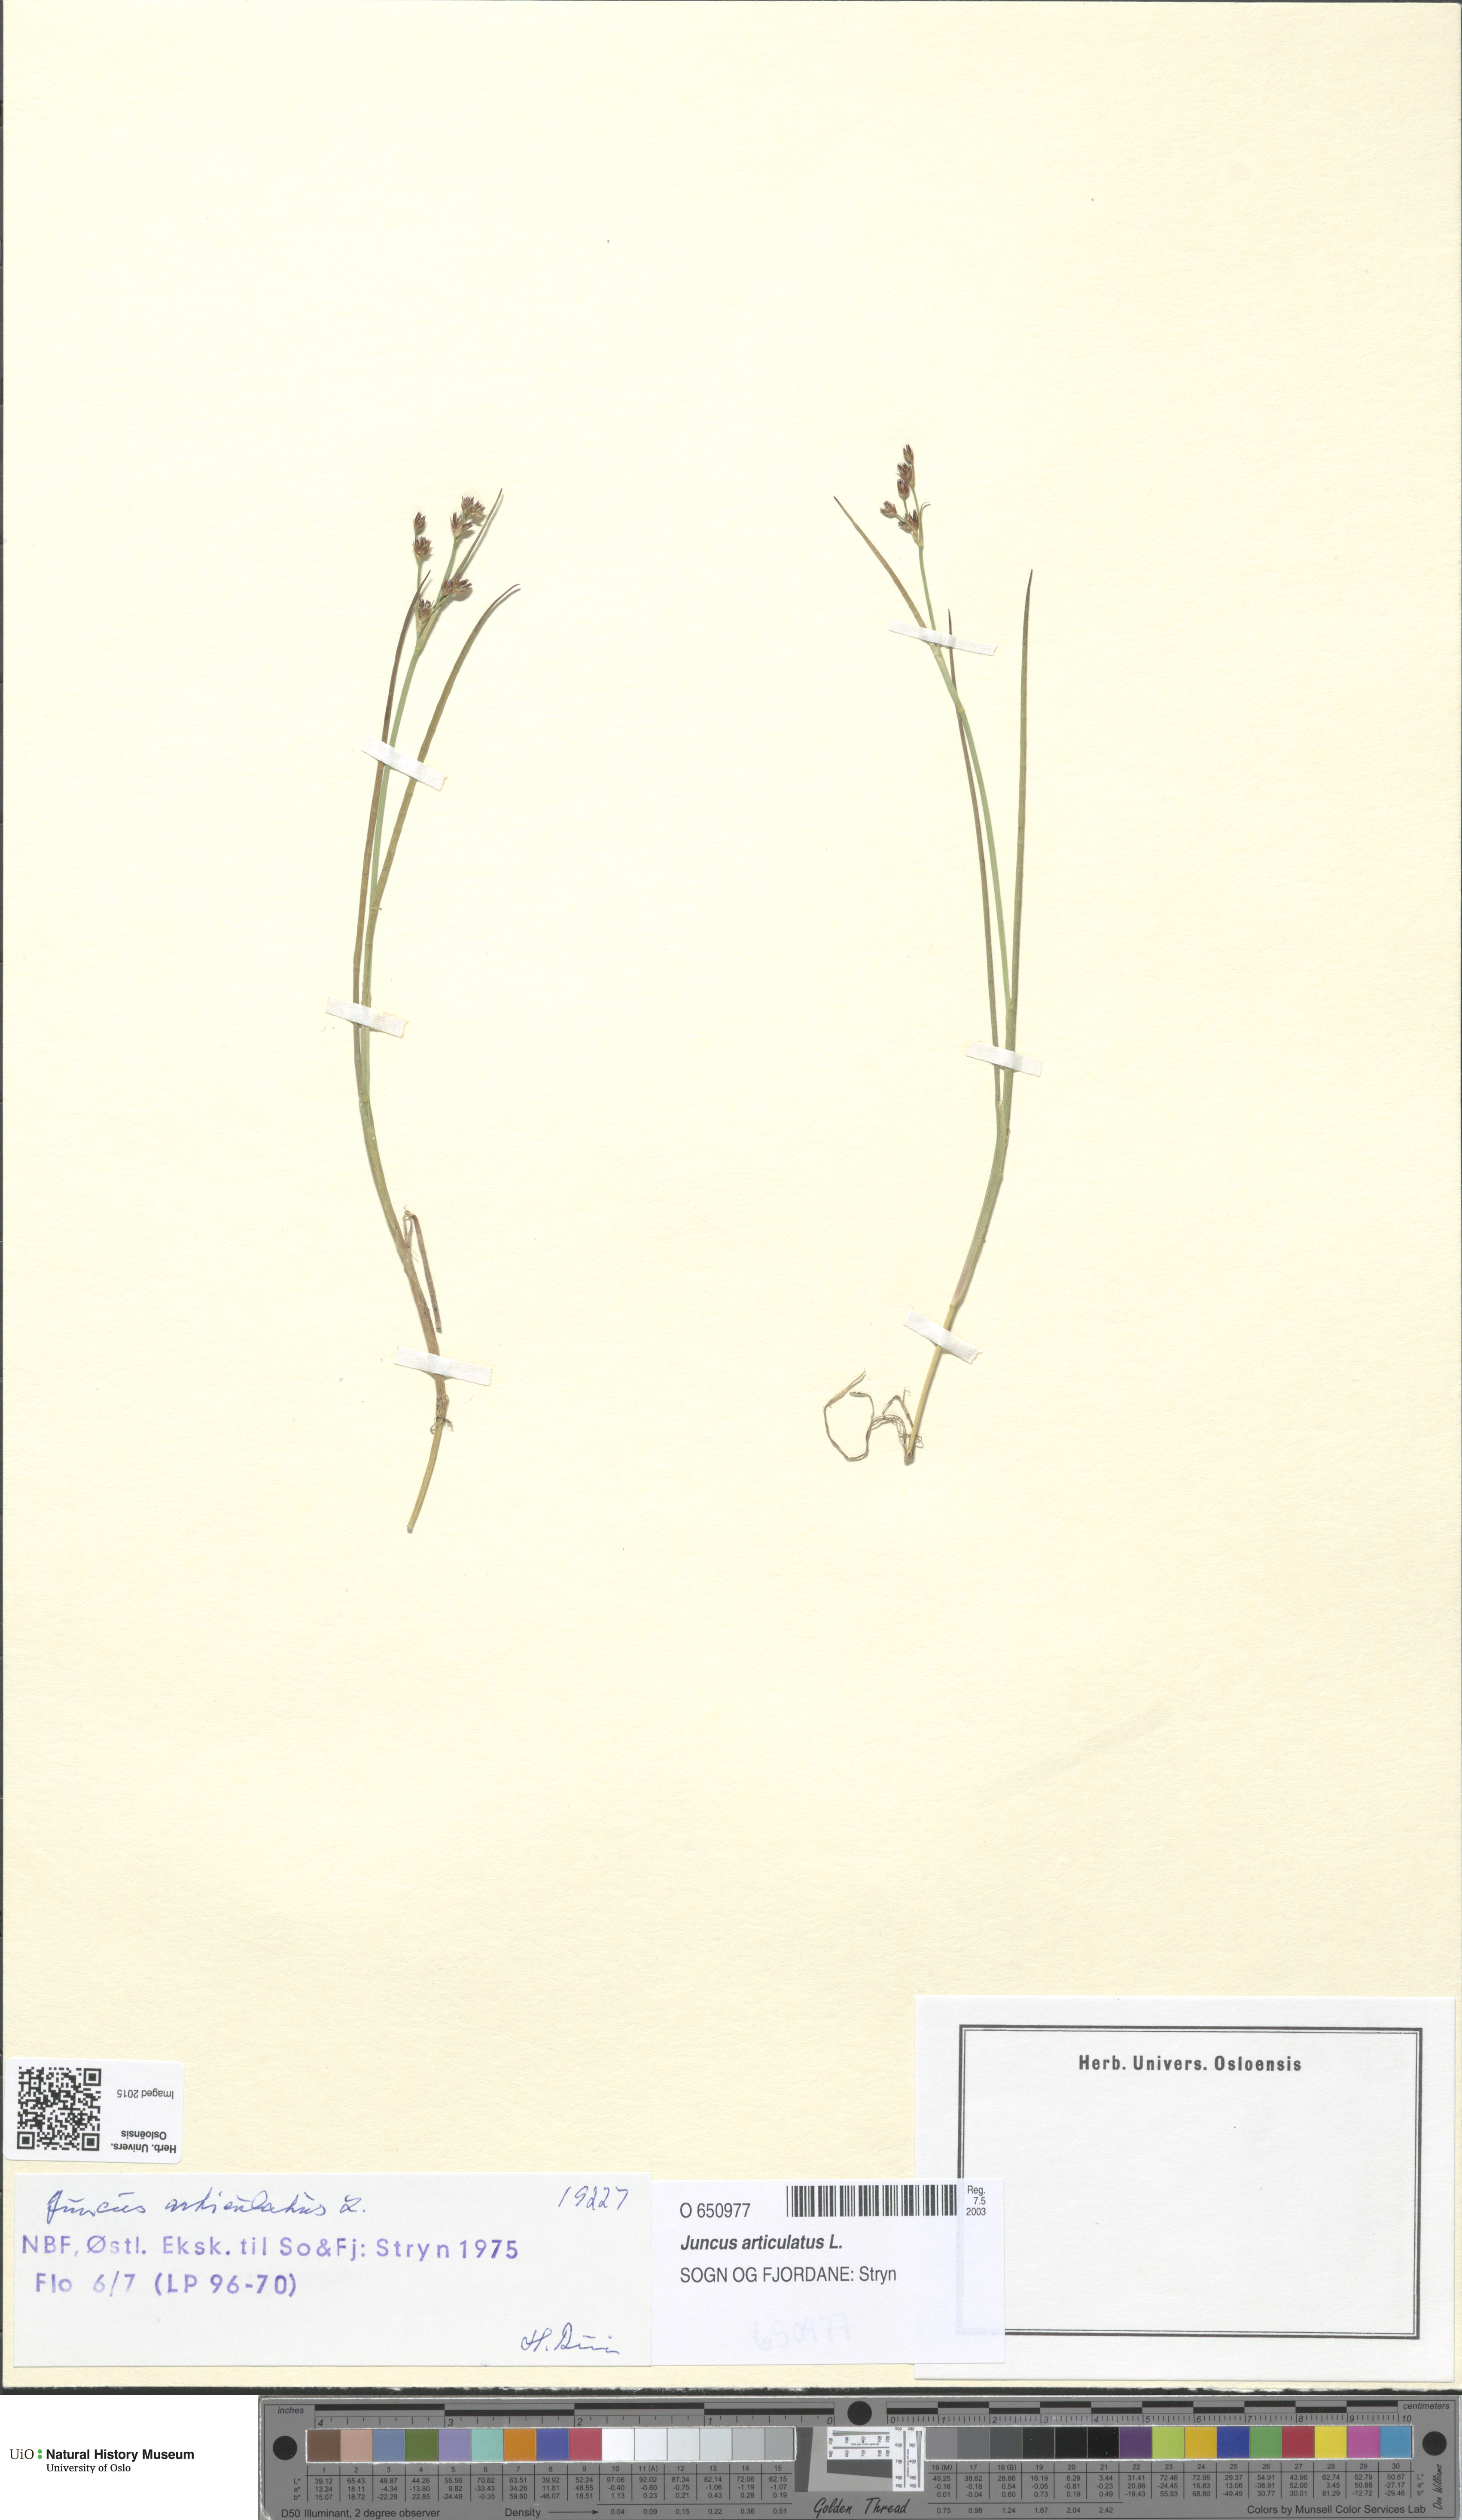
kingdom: Plantae
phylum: Tracheophyta
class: Liliopsida
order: Poales
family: Juncaceae
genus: Juncus
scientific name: Juncus articulatus
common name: Jointed rush
